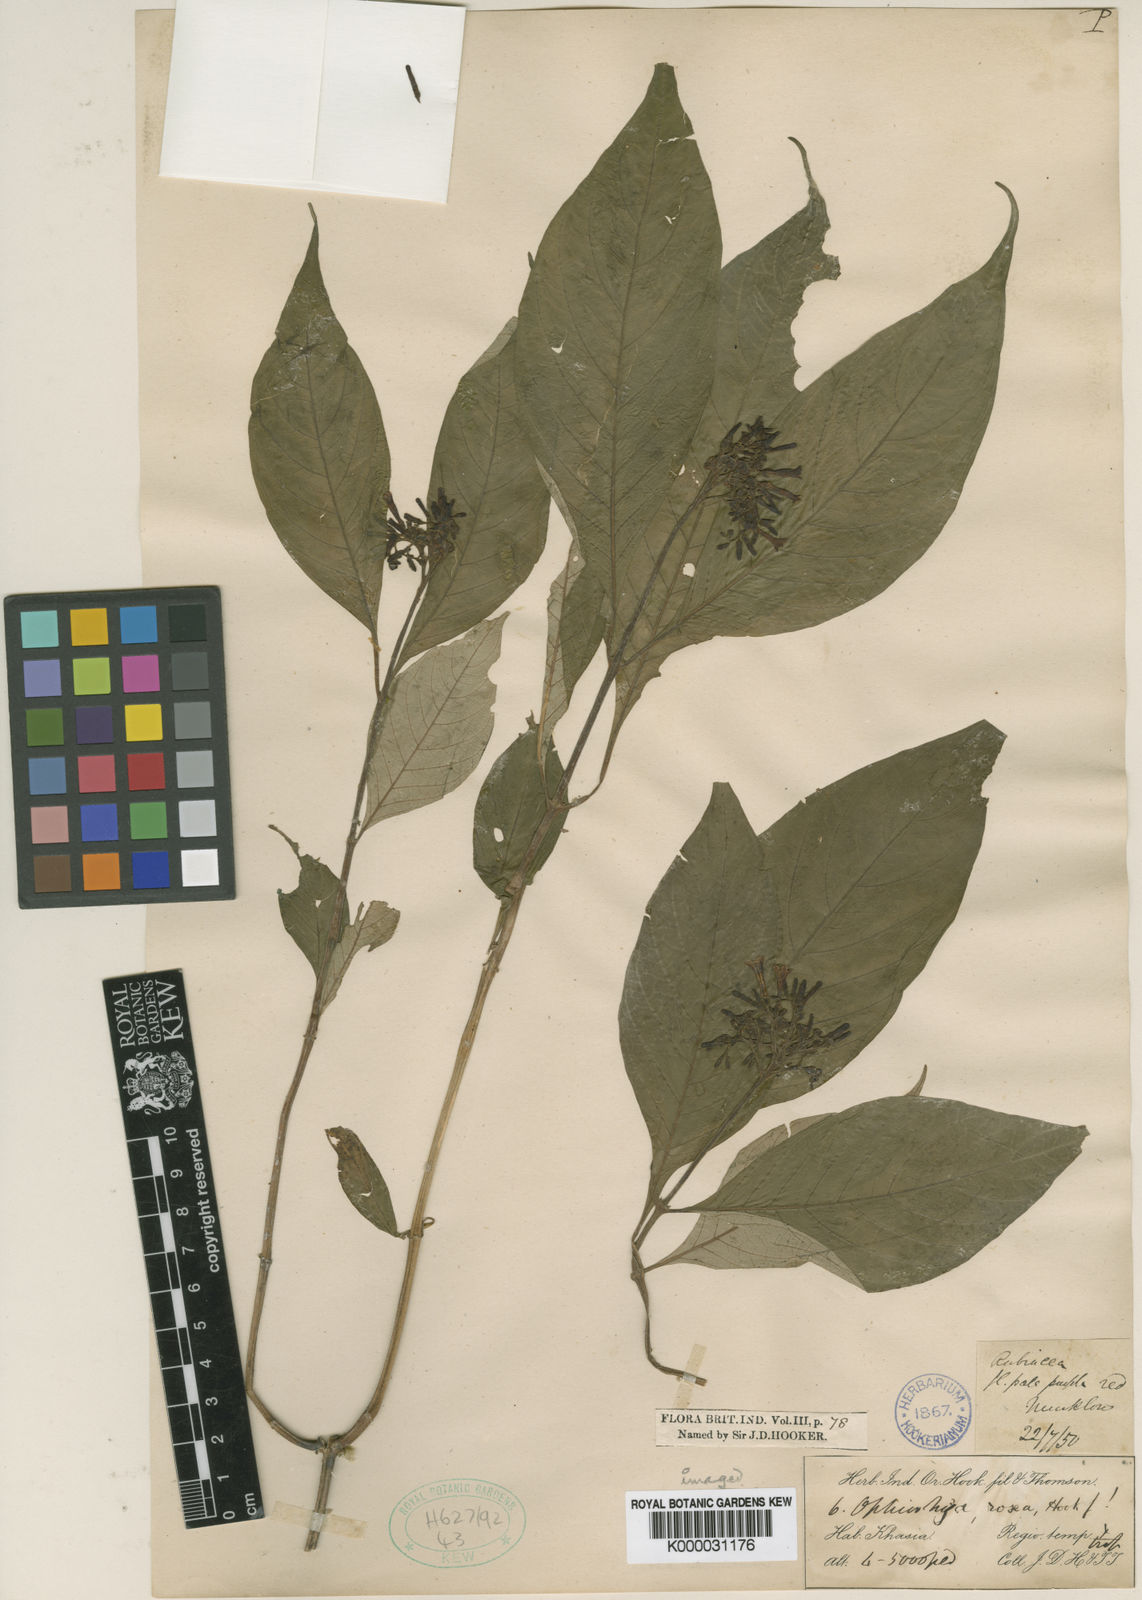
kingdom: Plantae
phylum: Tracheophyta
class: Magnoliopsida
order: Gentianales
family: Rubiaceae
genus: Ophiorrhiza
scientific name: Ophiorrhiza rosea
